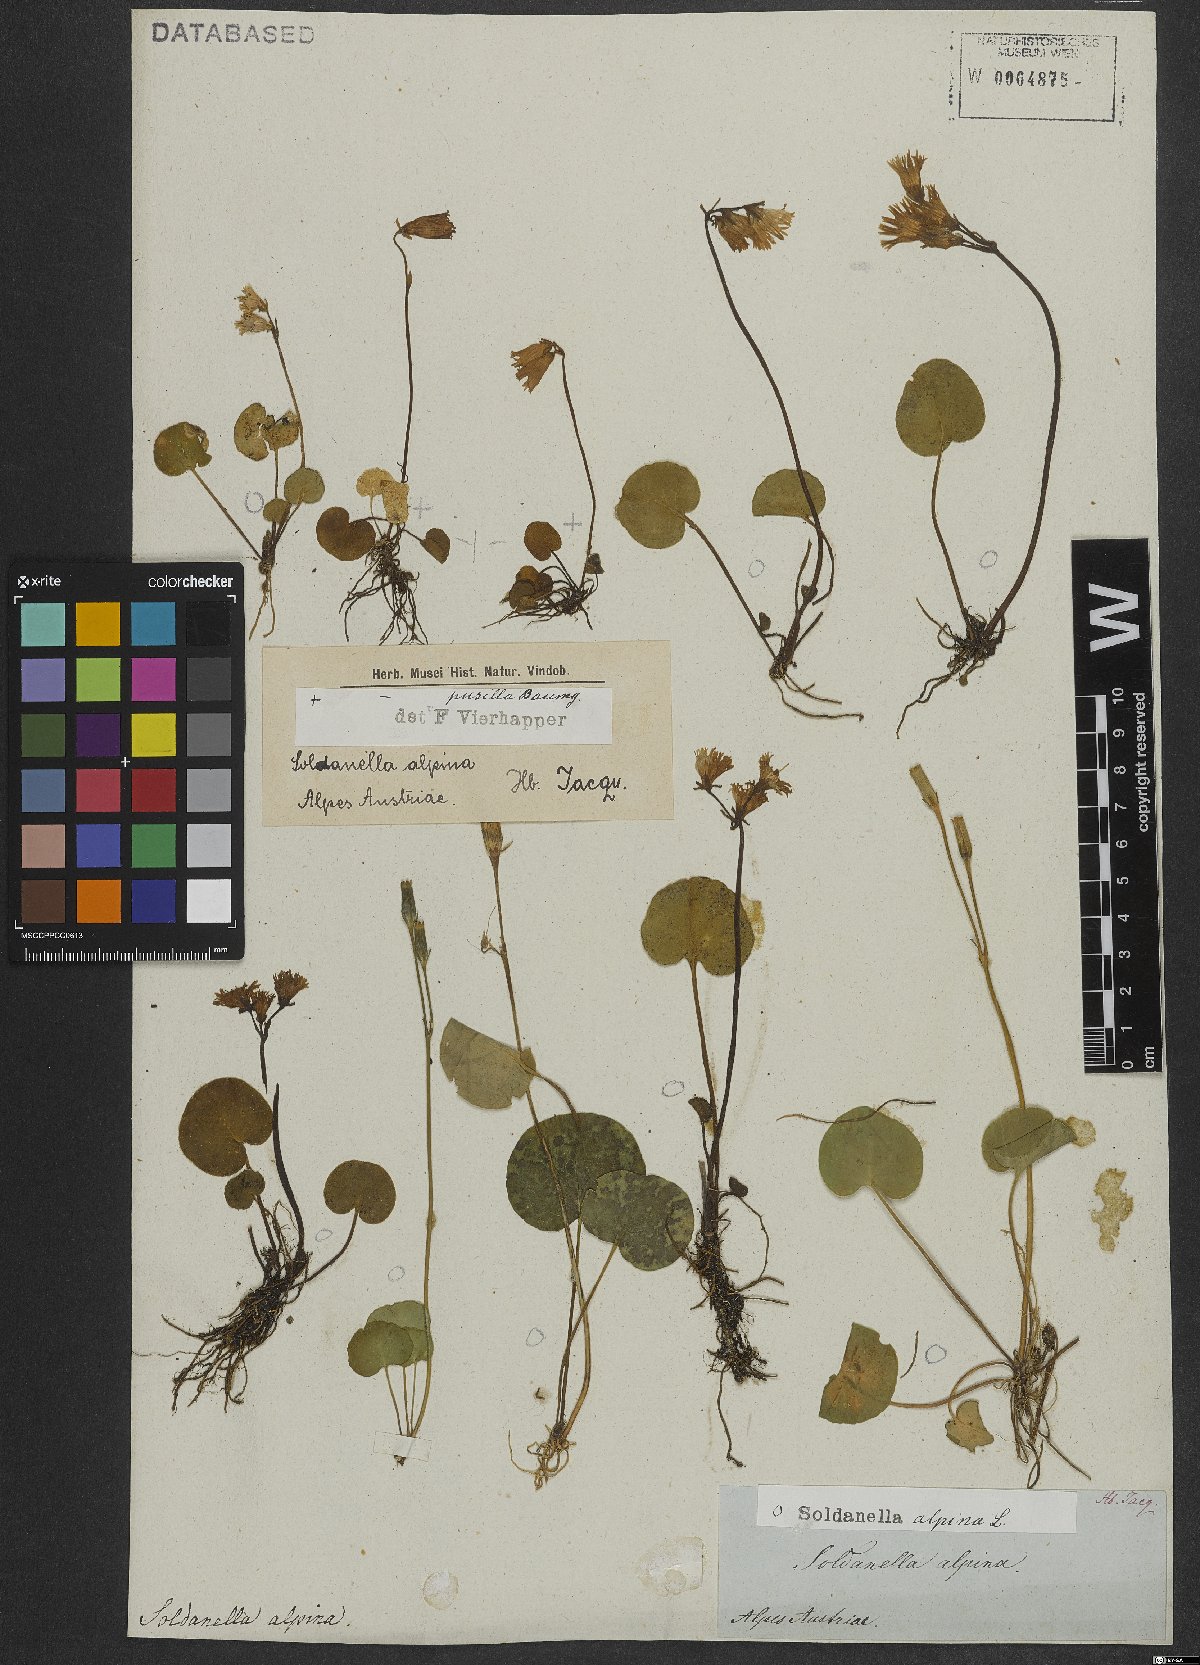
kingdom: Plantae
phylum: Tracheophyta
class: Magnoliopsida
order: Ericales
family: Primulaceae
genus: Soldanella
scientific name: Soldanella alpina
